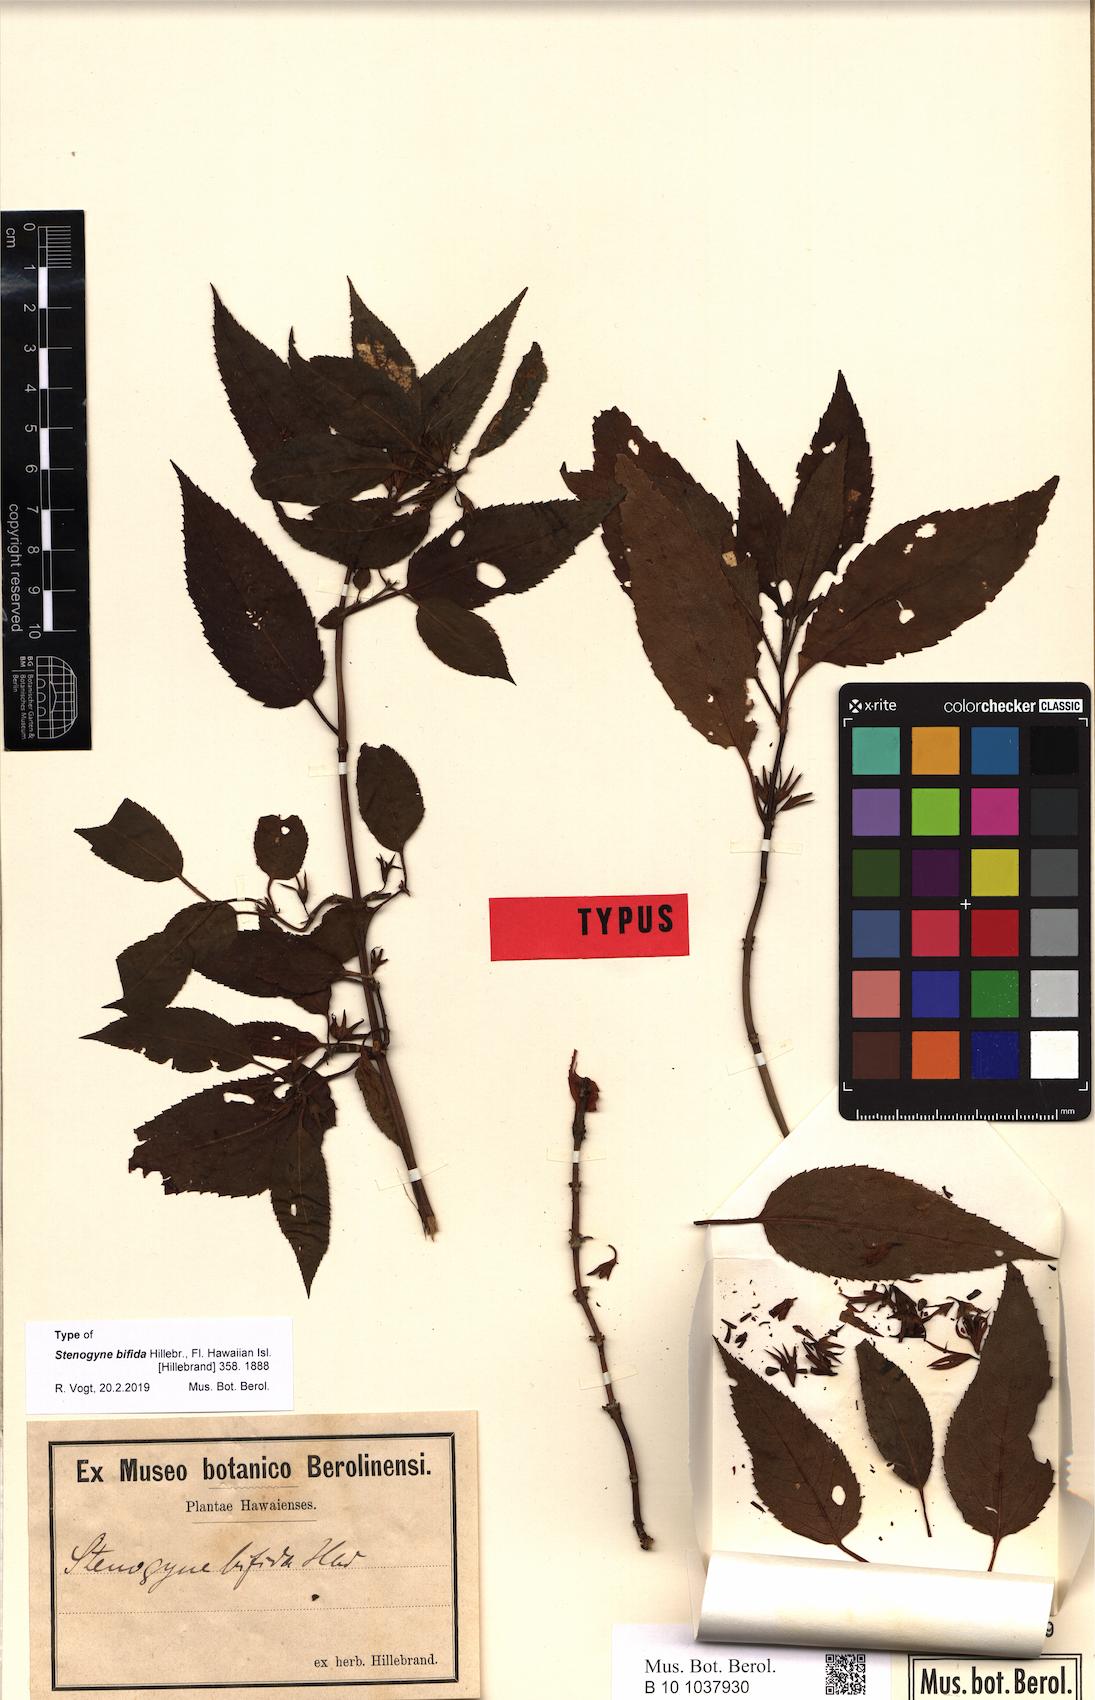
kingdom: Plantae
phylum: Tracheophyta
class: Magnoliopsida
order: Lamiales
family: Lamiaceae
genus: Stenogyne
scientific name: Stenogyne bifida
